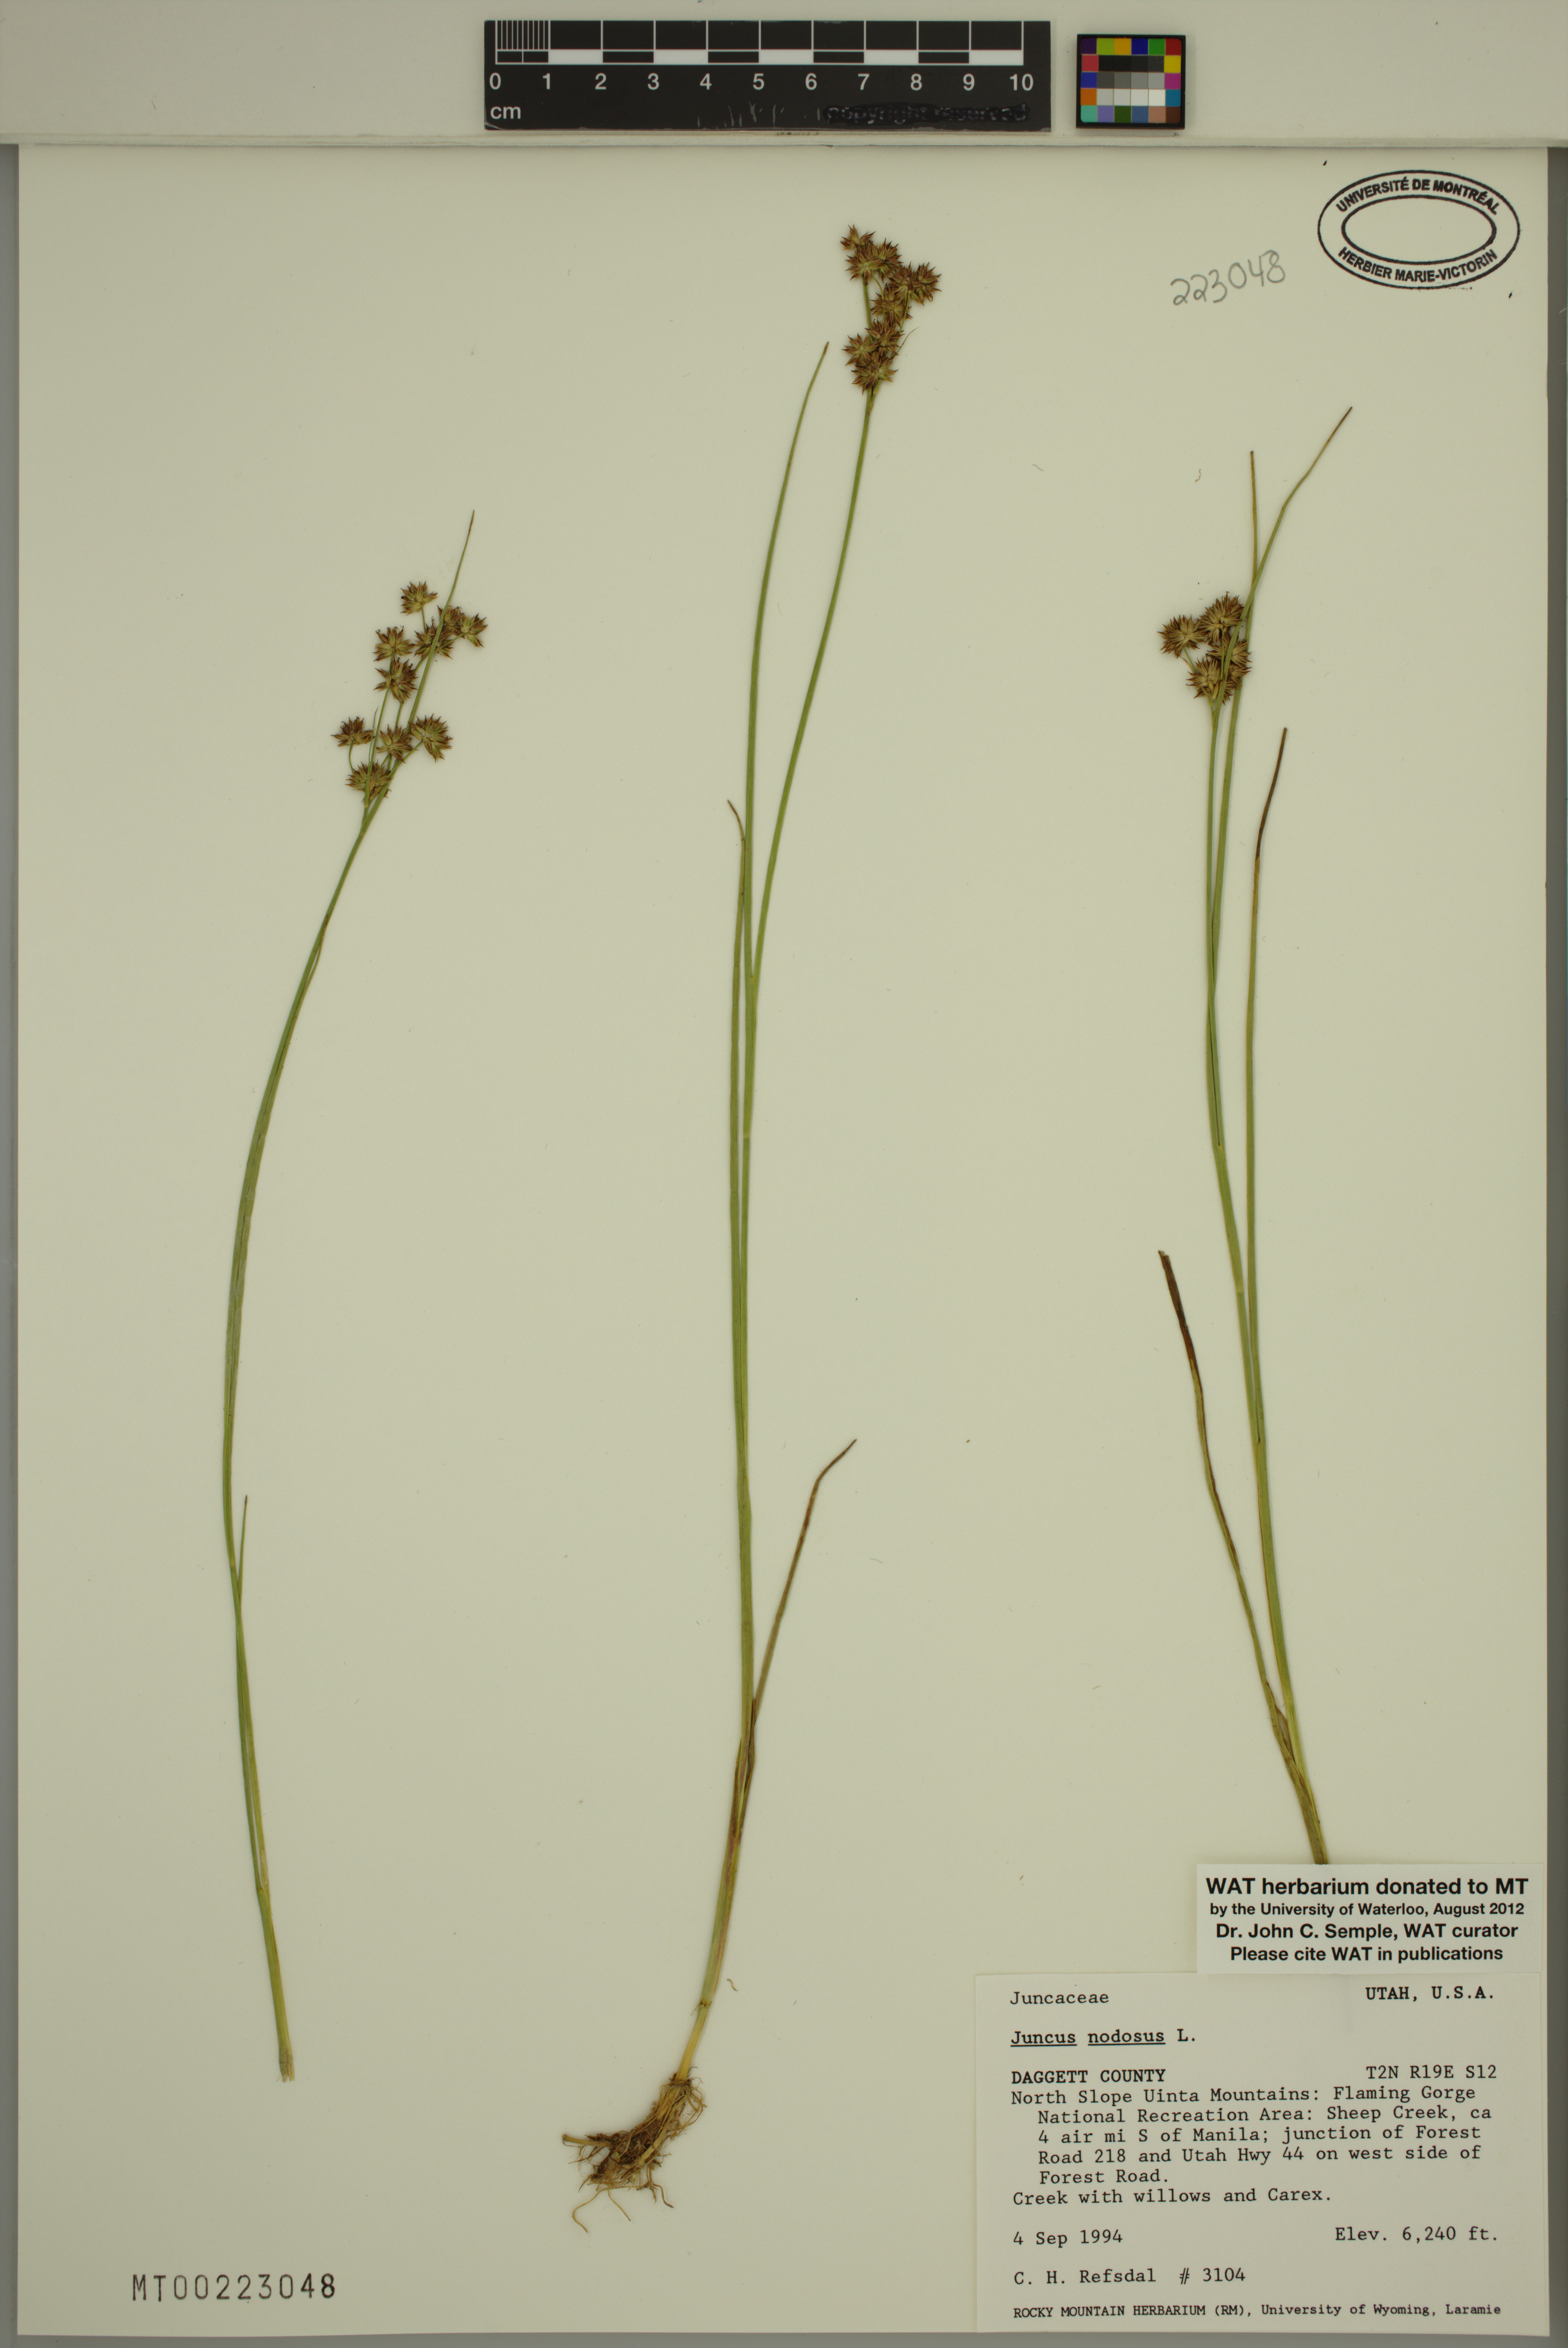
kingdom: Plantae
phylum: Tracheophyta
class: Liliopsida
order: Poales
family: Juncaceae
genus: Juncus
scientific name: Juncus nodosus
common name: Knotted rush
